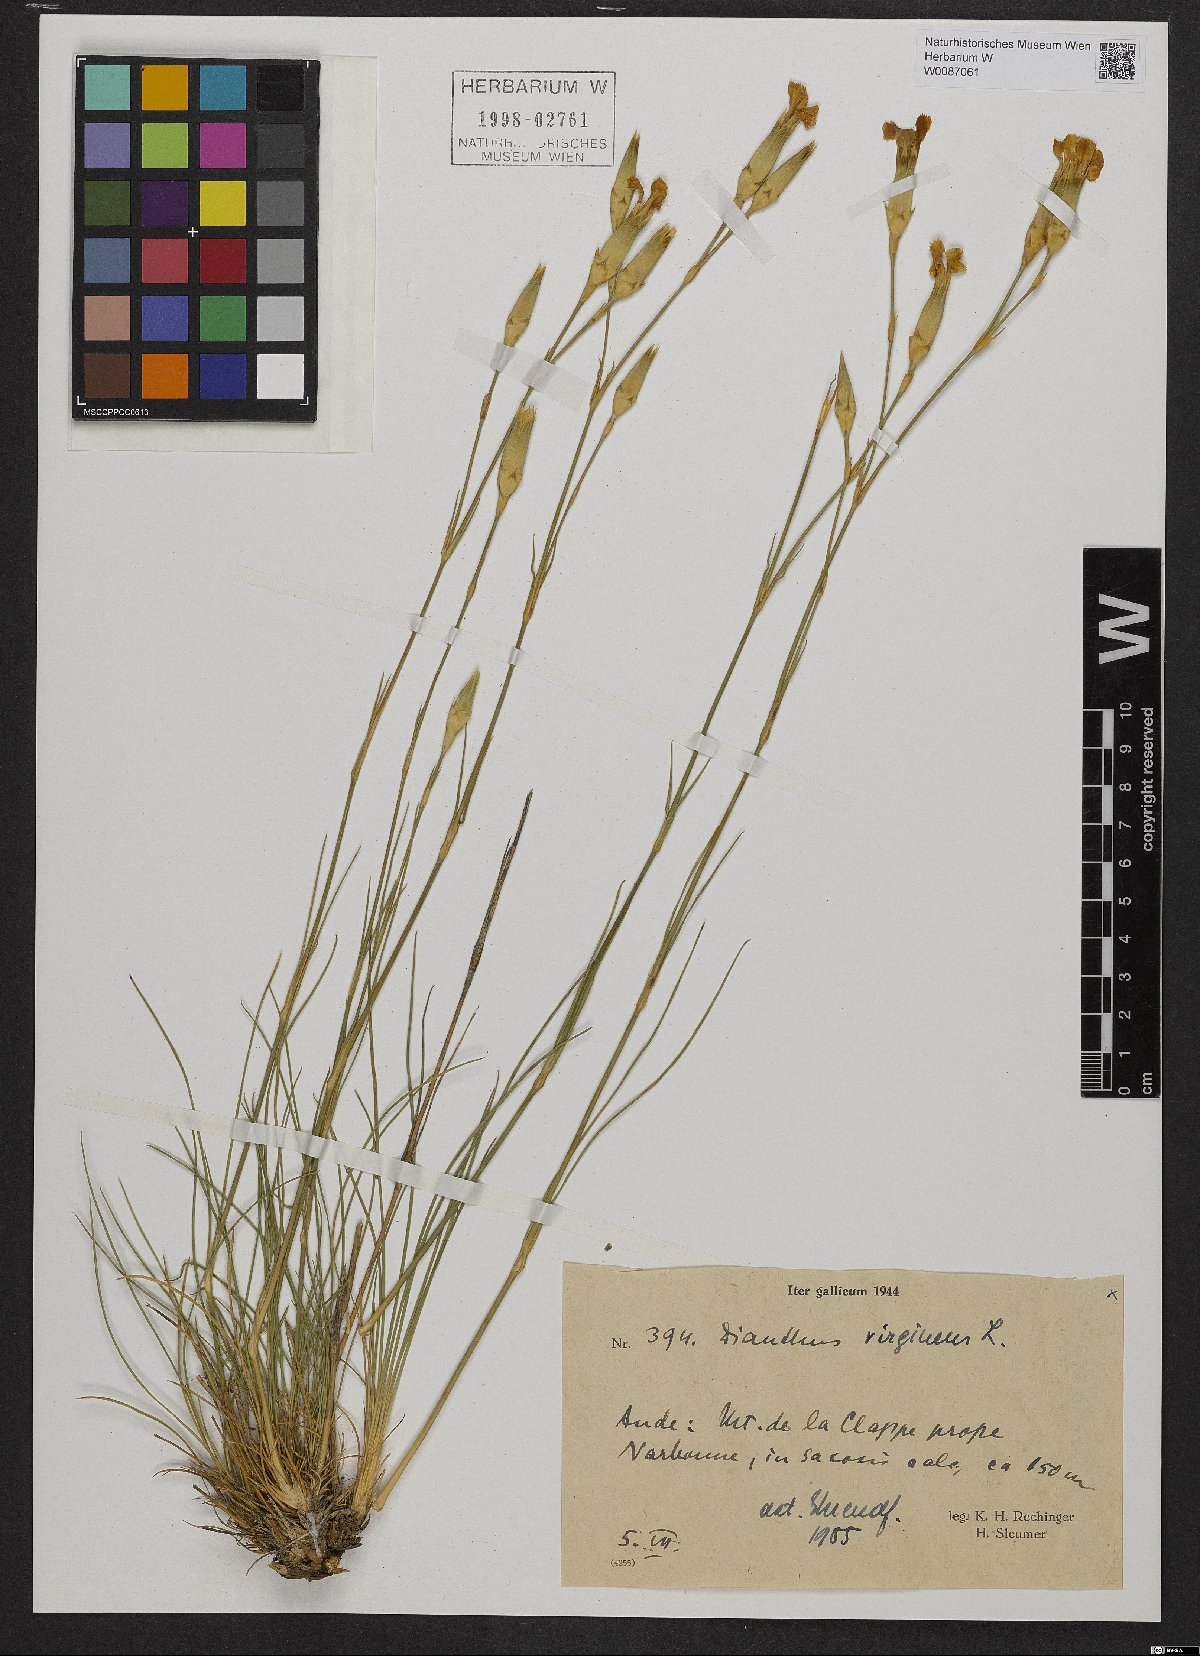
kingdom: Plantae
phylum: Tracheophyta
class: Magnoliopsida
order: Caryophyllales
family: Caryophyllaceae
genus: Dianthus
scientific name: Dianthus virgineus
